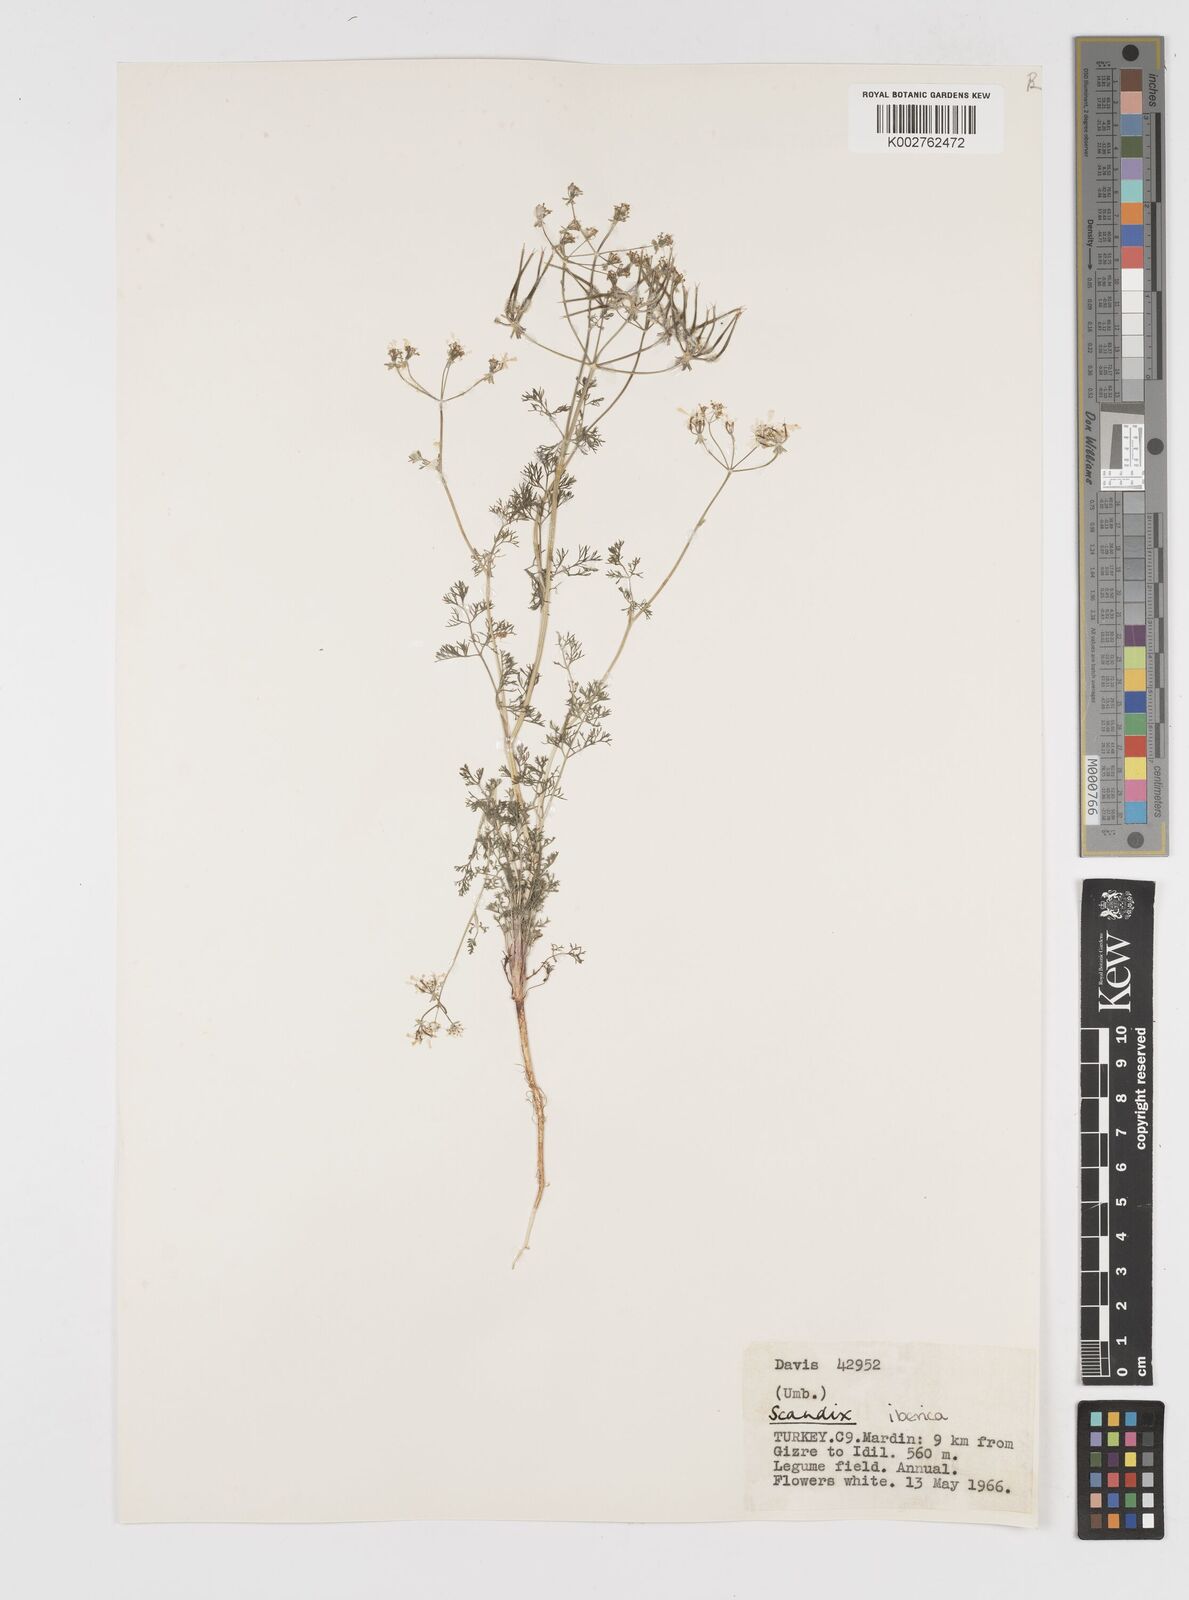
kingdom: Plantae
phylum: Tracheophyta
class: Magnoliopsida
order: Apiales
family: Apiaceae
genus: Scandix
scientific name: Scandix iberica
